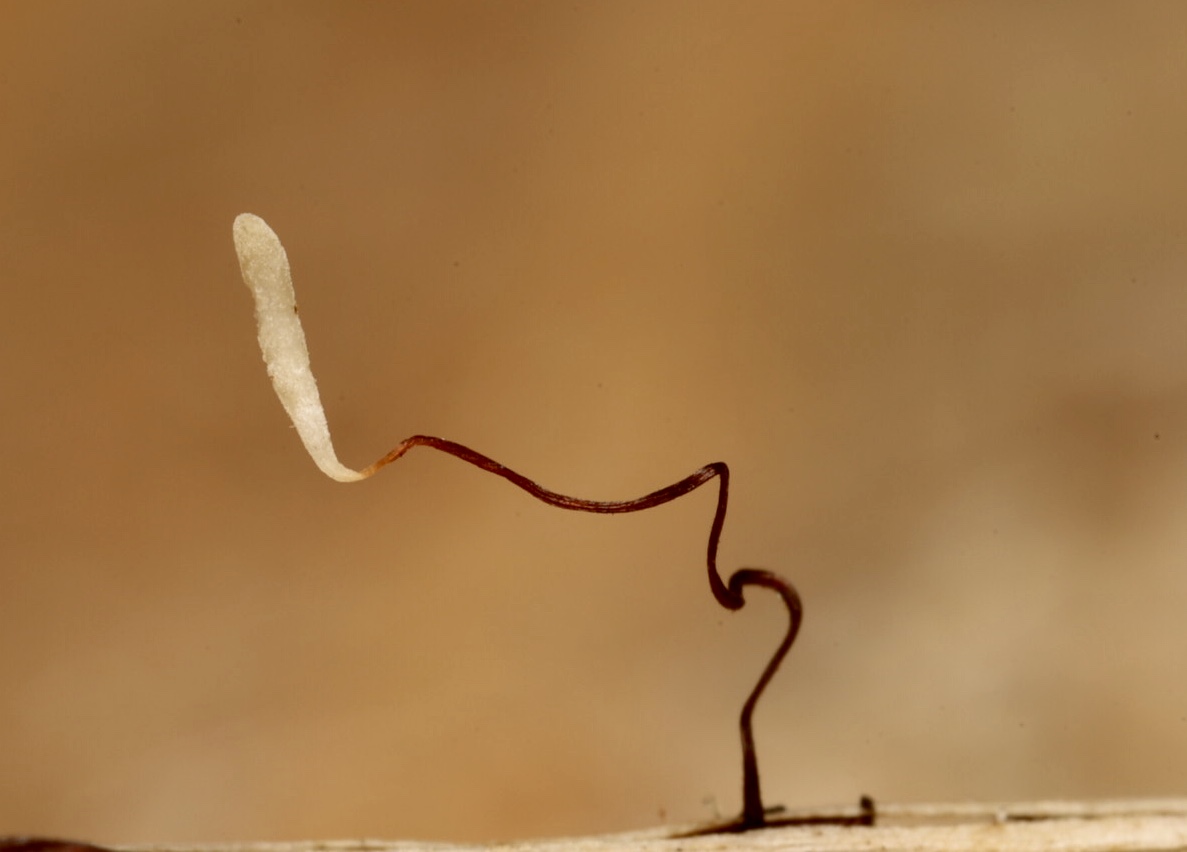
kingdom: Fungi
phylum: Basidiomycota
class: Agaricomycetes
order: Agaricales
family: Typhulaceae
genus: Typhula
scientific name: Typhula erythropus
